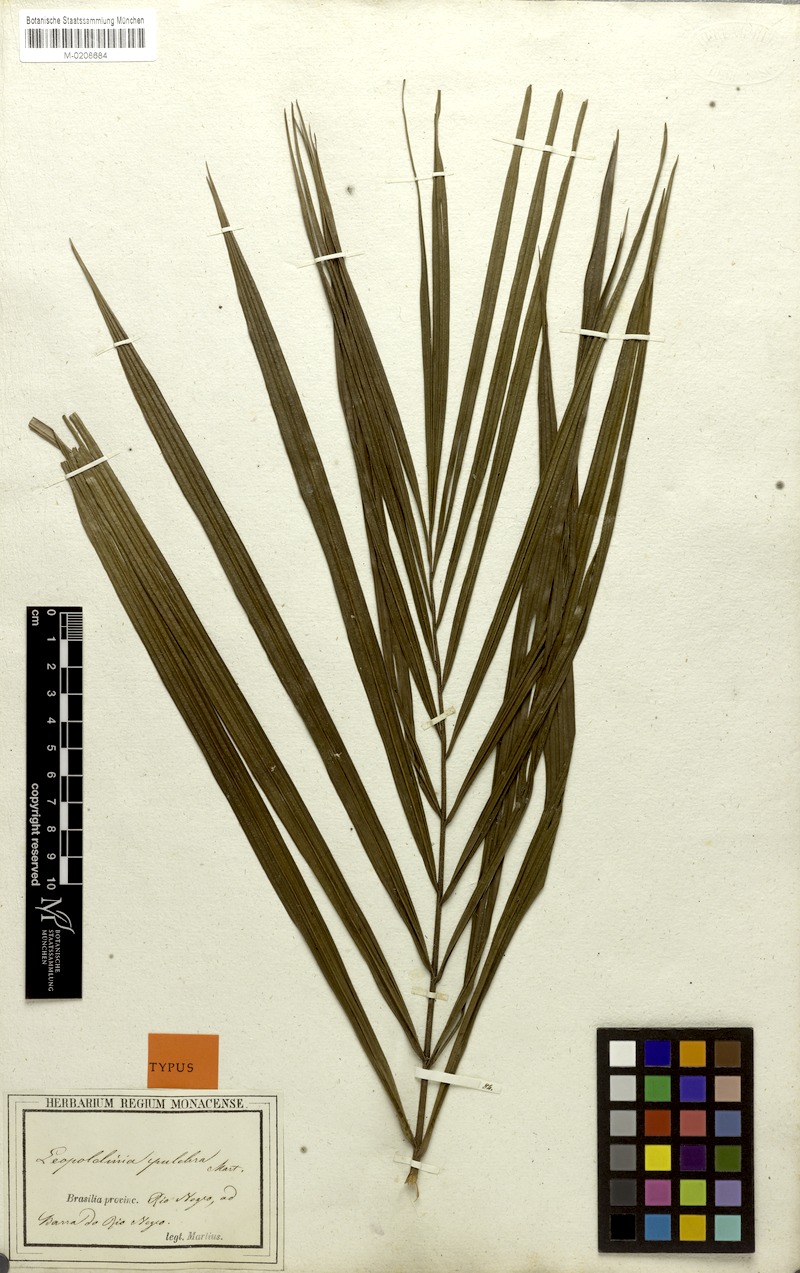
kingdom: Plantae
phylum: Tracheophyta
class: Liliopsida
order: Arecales
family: Arecaceae
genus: Leopoldinia
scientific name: Leopoldinia pulchra
